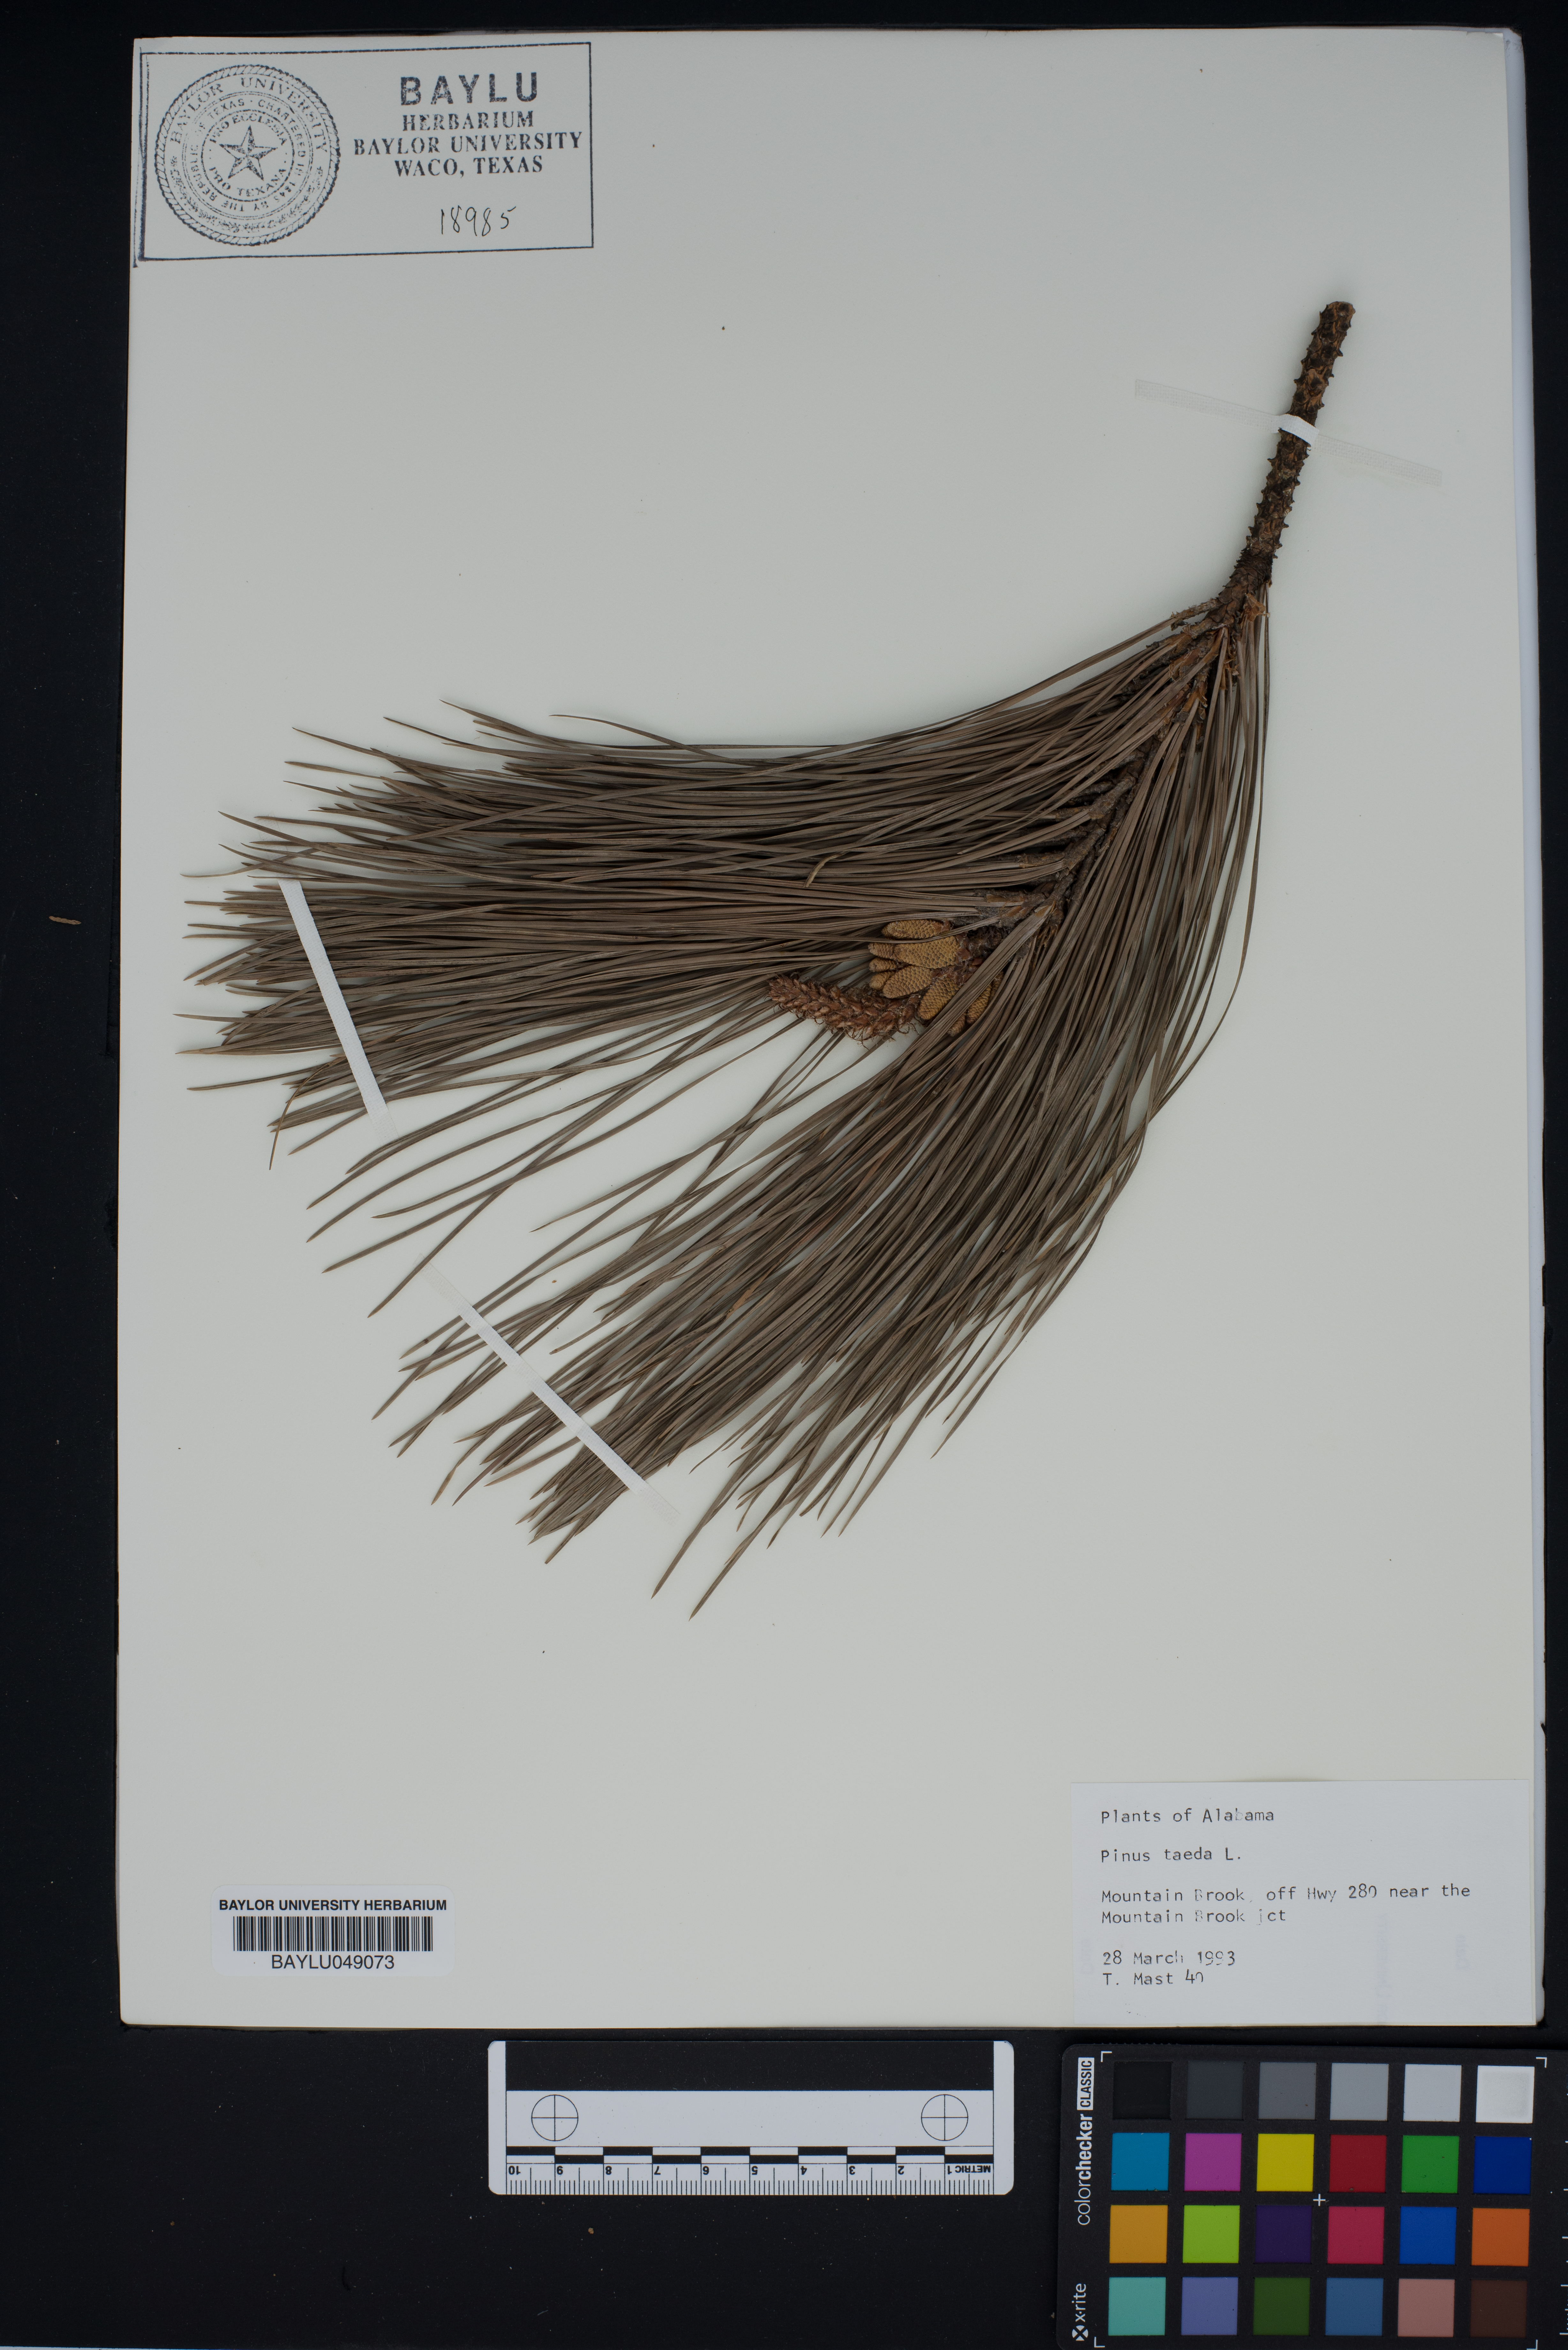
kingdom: Plantae
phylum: Tracheophyta
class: Pinopsida
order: Pinales
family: Pinaceae
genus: Pinus
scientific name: Pinus taeda
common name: Loblolly pine
